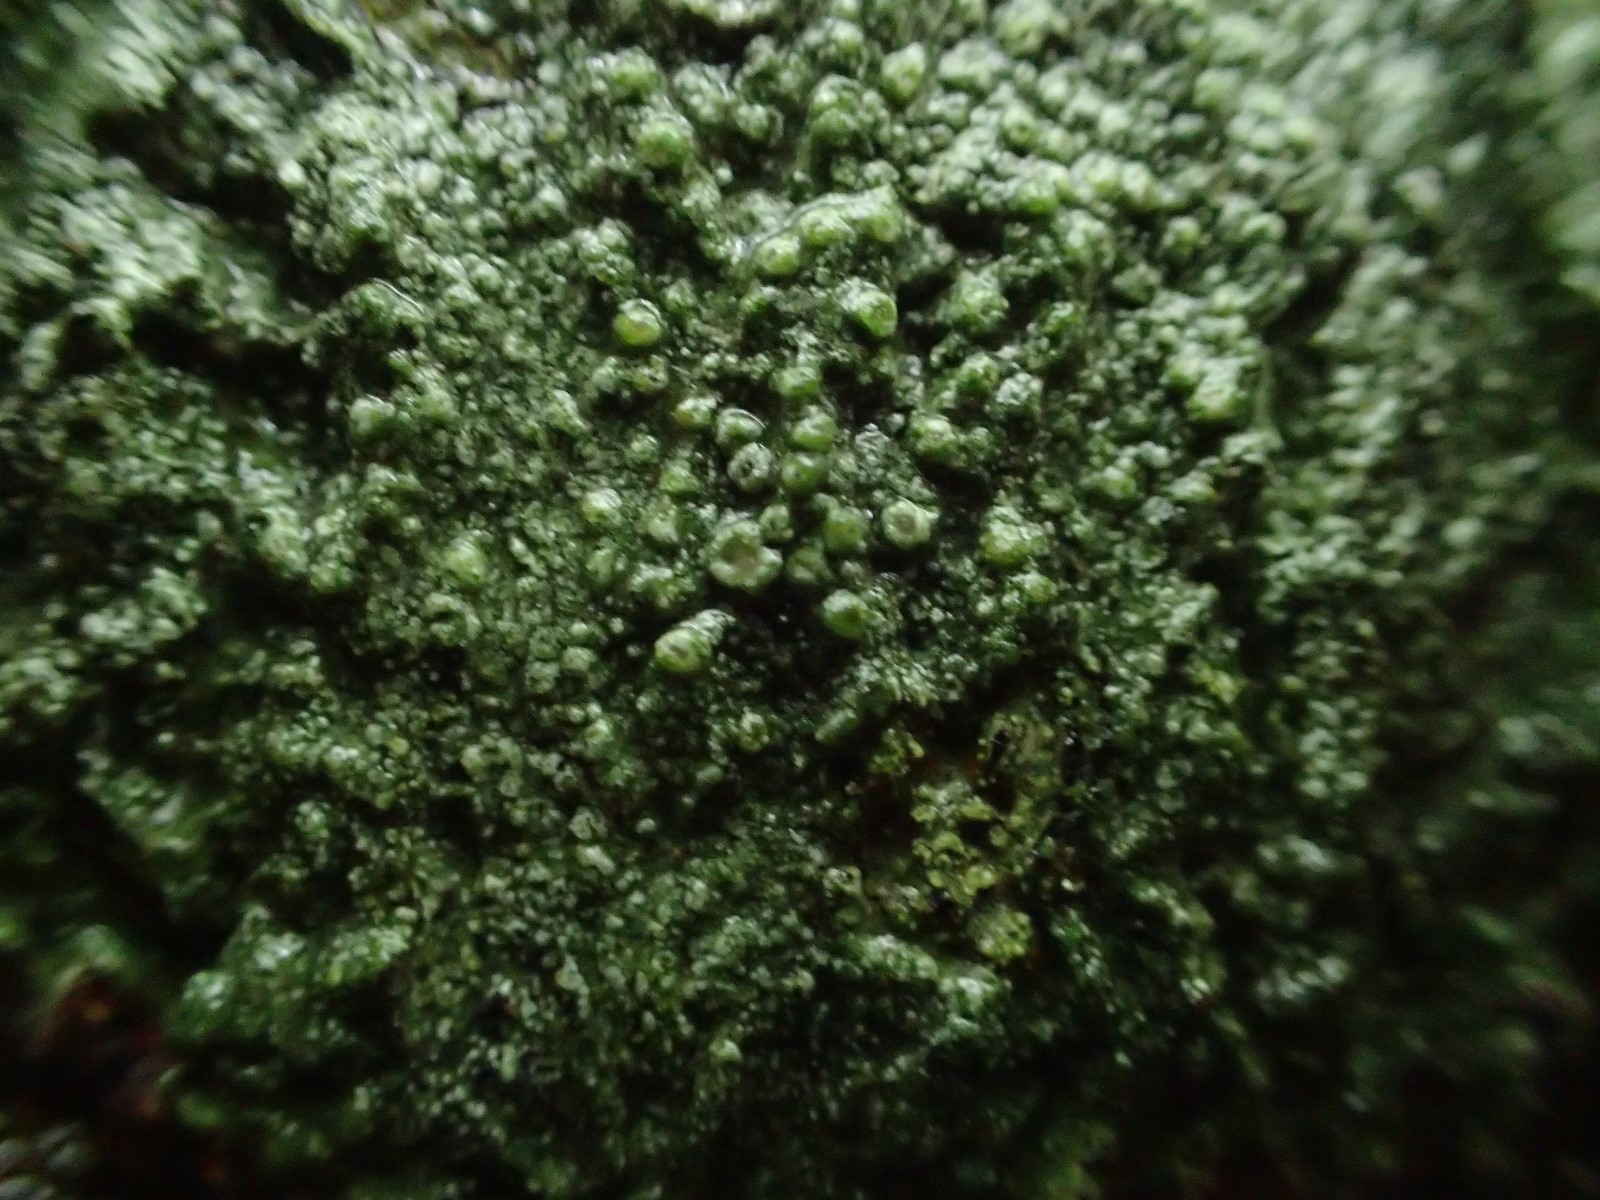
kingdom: Fungi
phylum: Ascomycota
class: Lecanoromycetes
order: Lecanorales
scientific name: Lecanorales
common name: skivelavordenen
